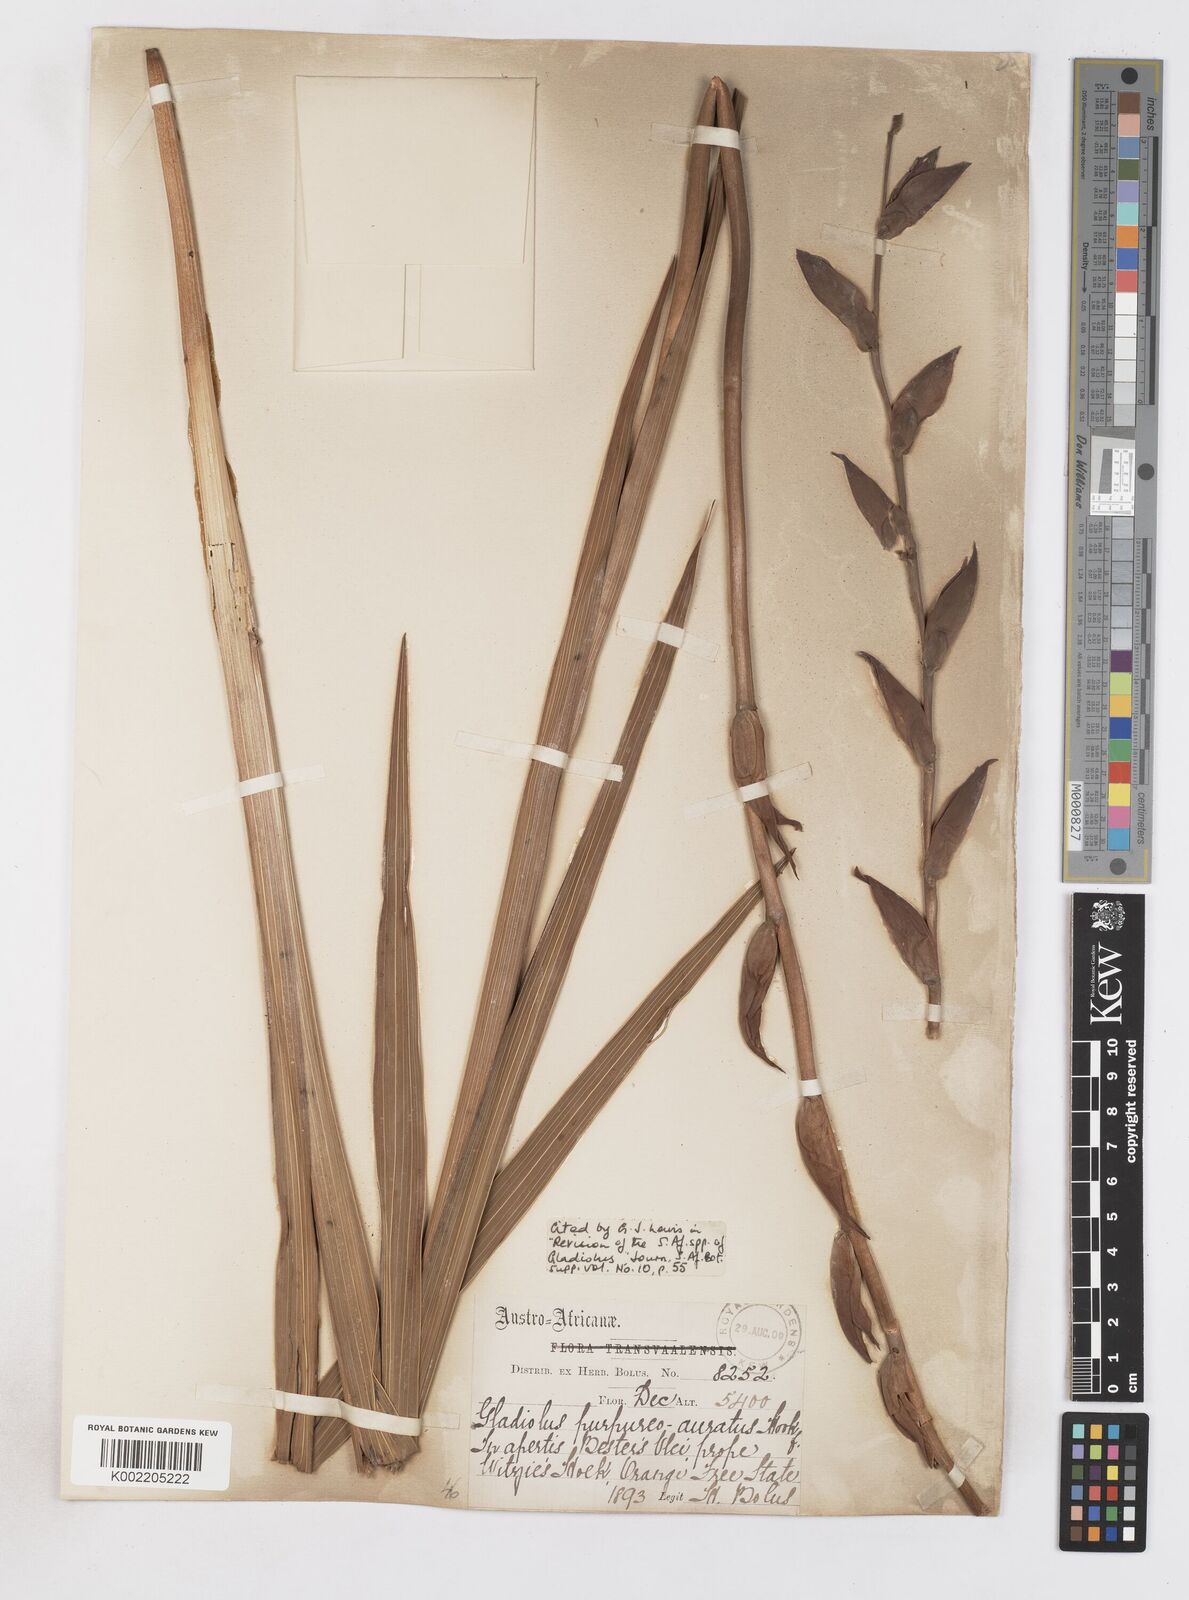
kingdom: Plantae
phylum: Tracheophyta
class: Liliopsida
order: Asparagales
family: Iridaceae
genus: Gladiolus
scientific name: Gladiolus papilio
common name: Goldblotch gladiolus
